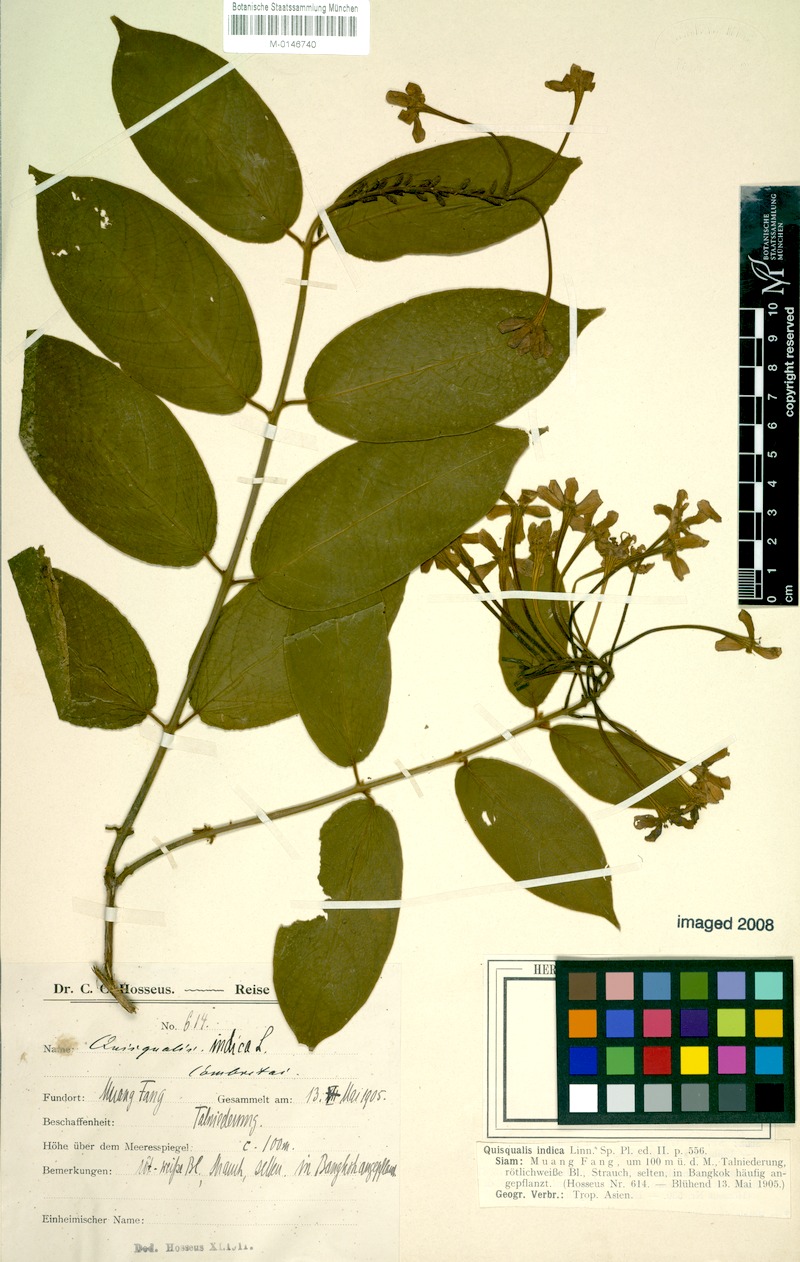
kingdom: Plantae
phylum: Tracheophyta
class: Magnoliopsida
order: Myrtales
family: Combretaceae
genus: Combretum
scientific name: Combretum indicum
